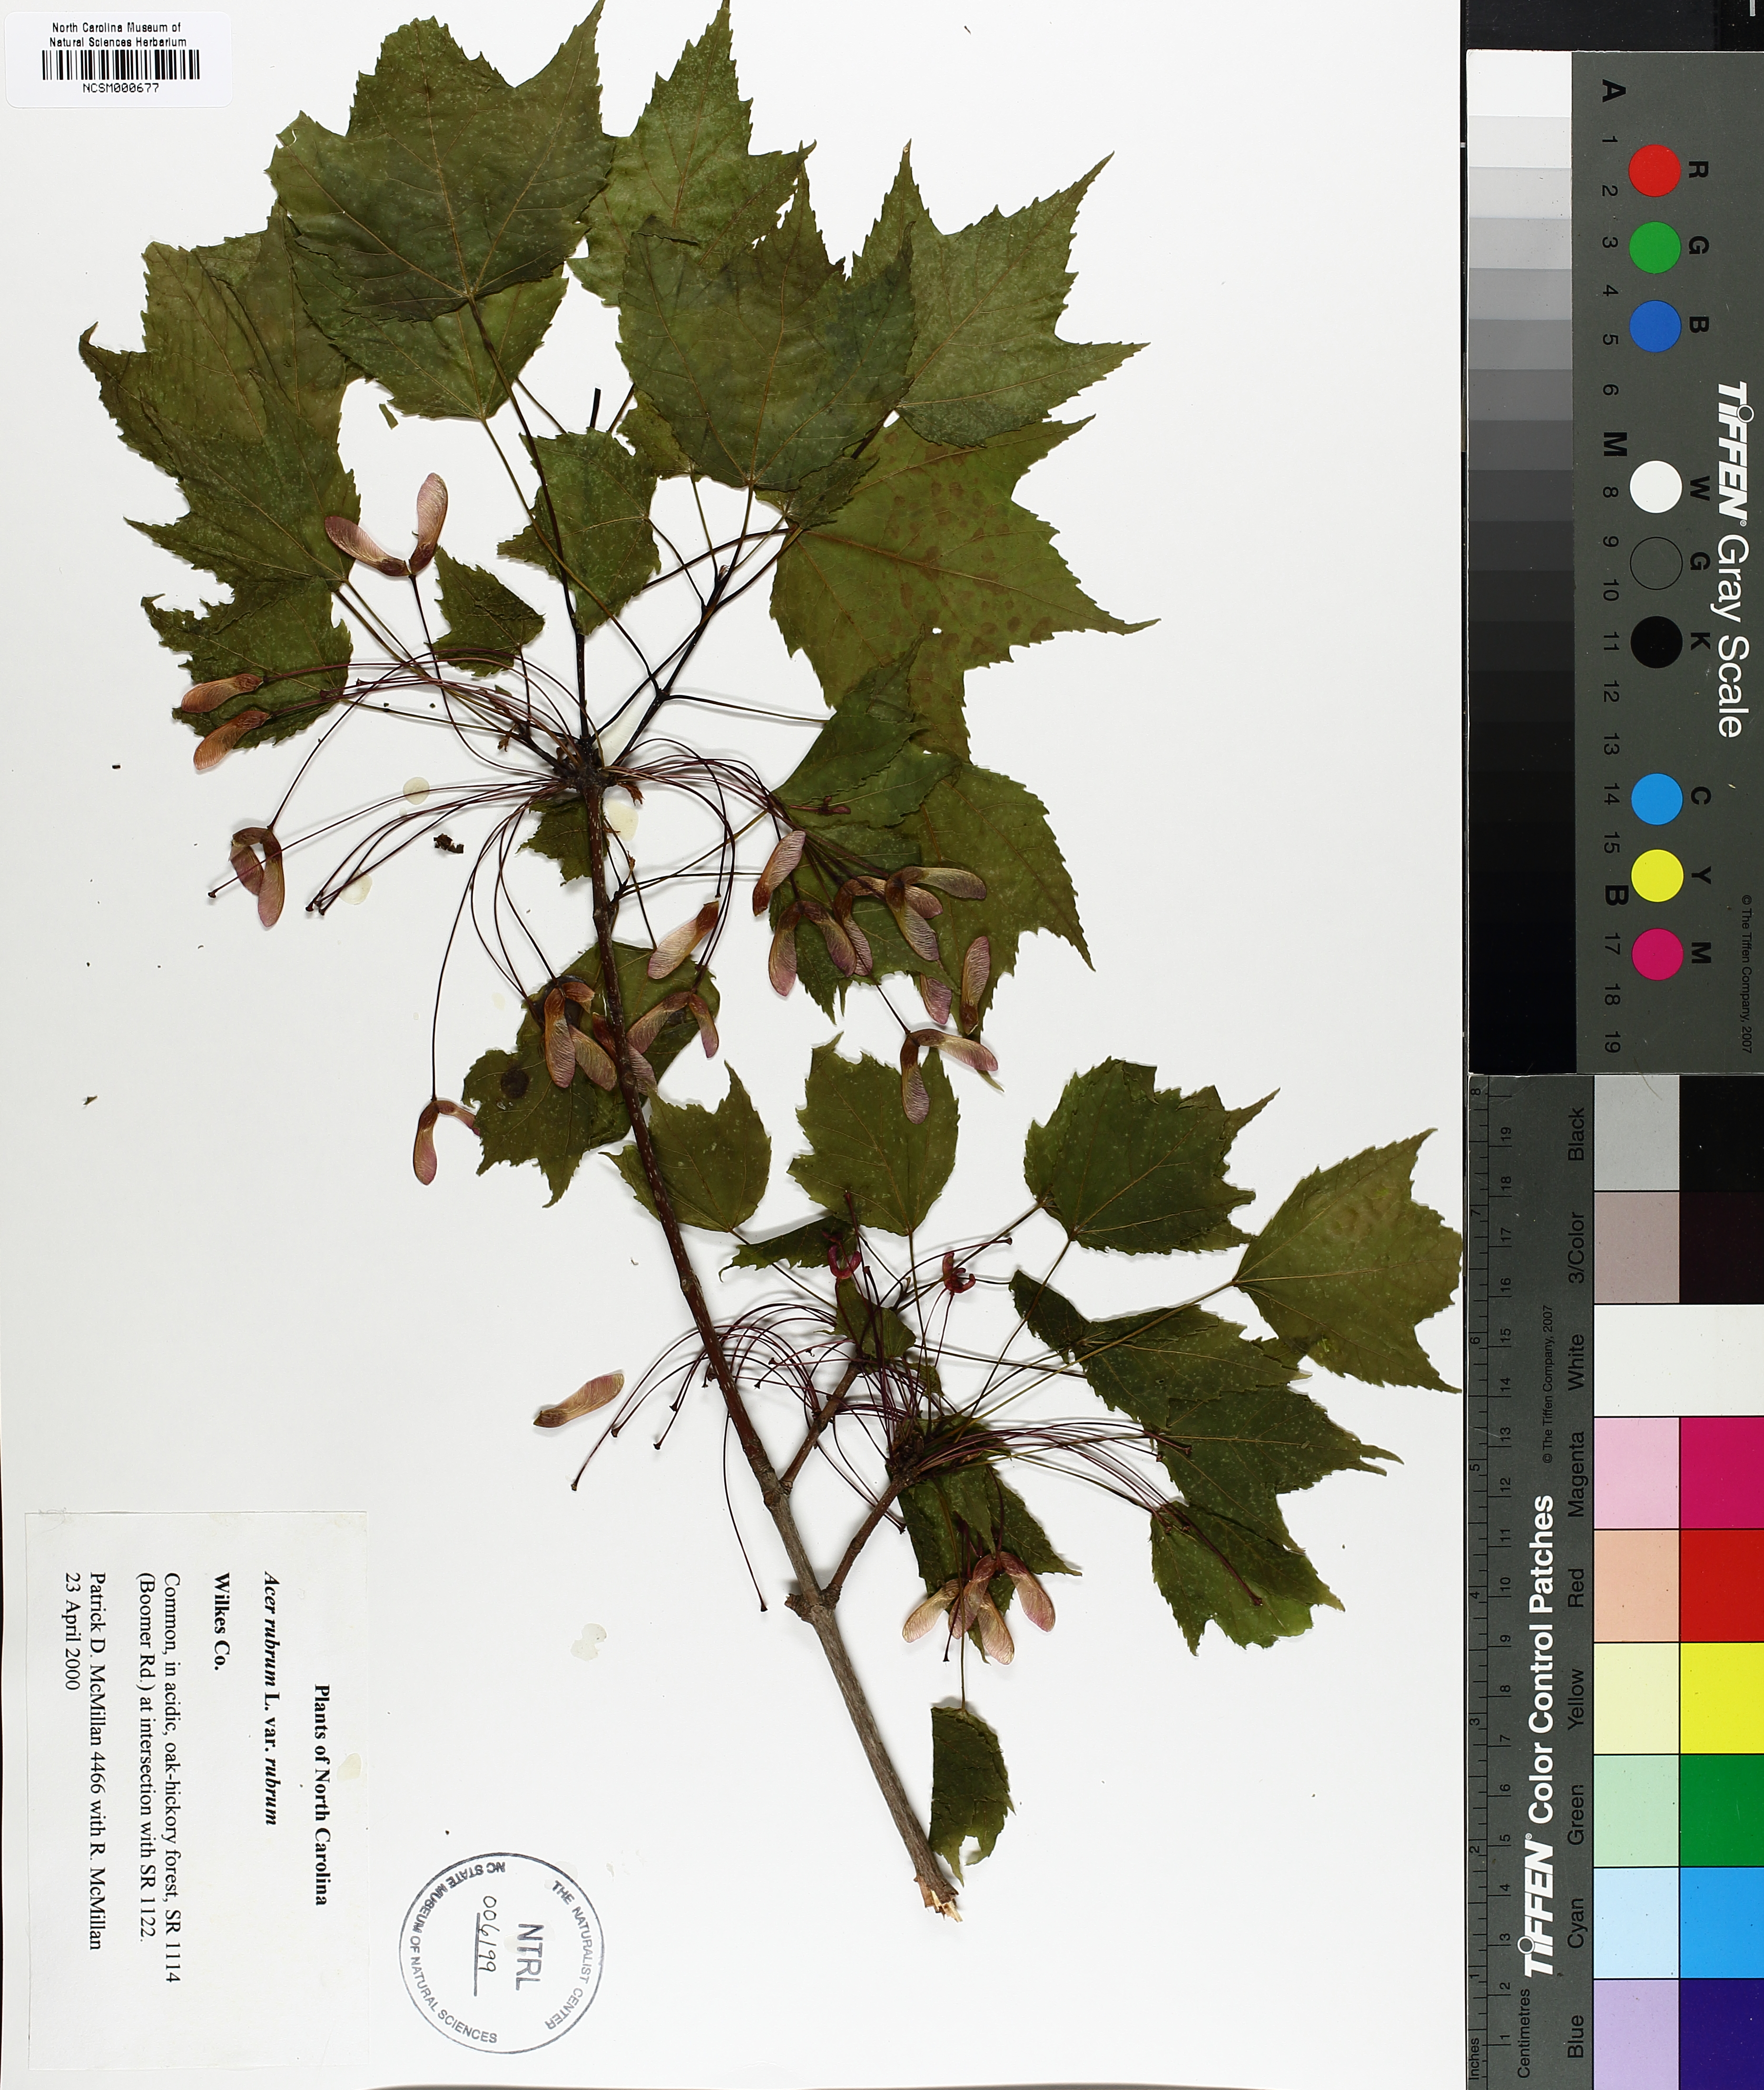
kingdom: Plantae
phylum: Tracheophyta
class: Magnoliopsida
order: Sapindales
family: Sapindaceae
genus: Acer
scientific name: Acer rubrum
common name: Red maple
